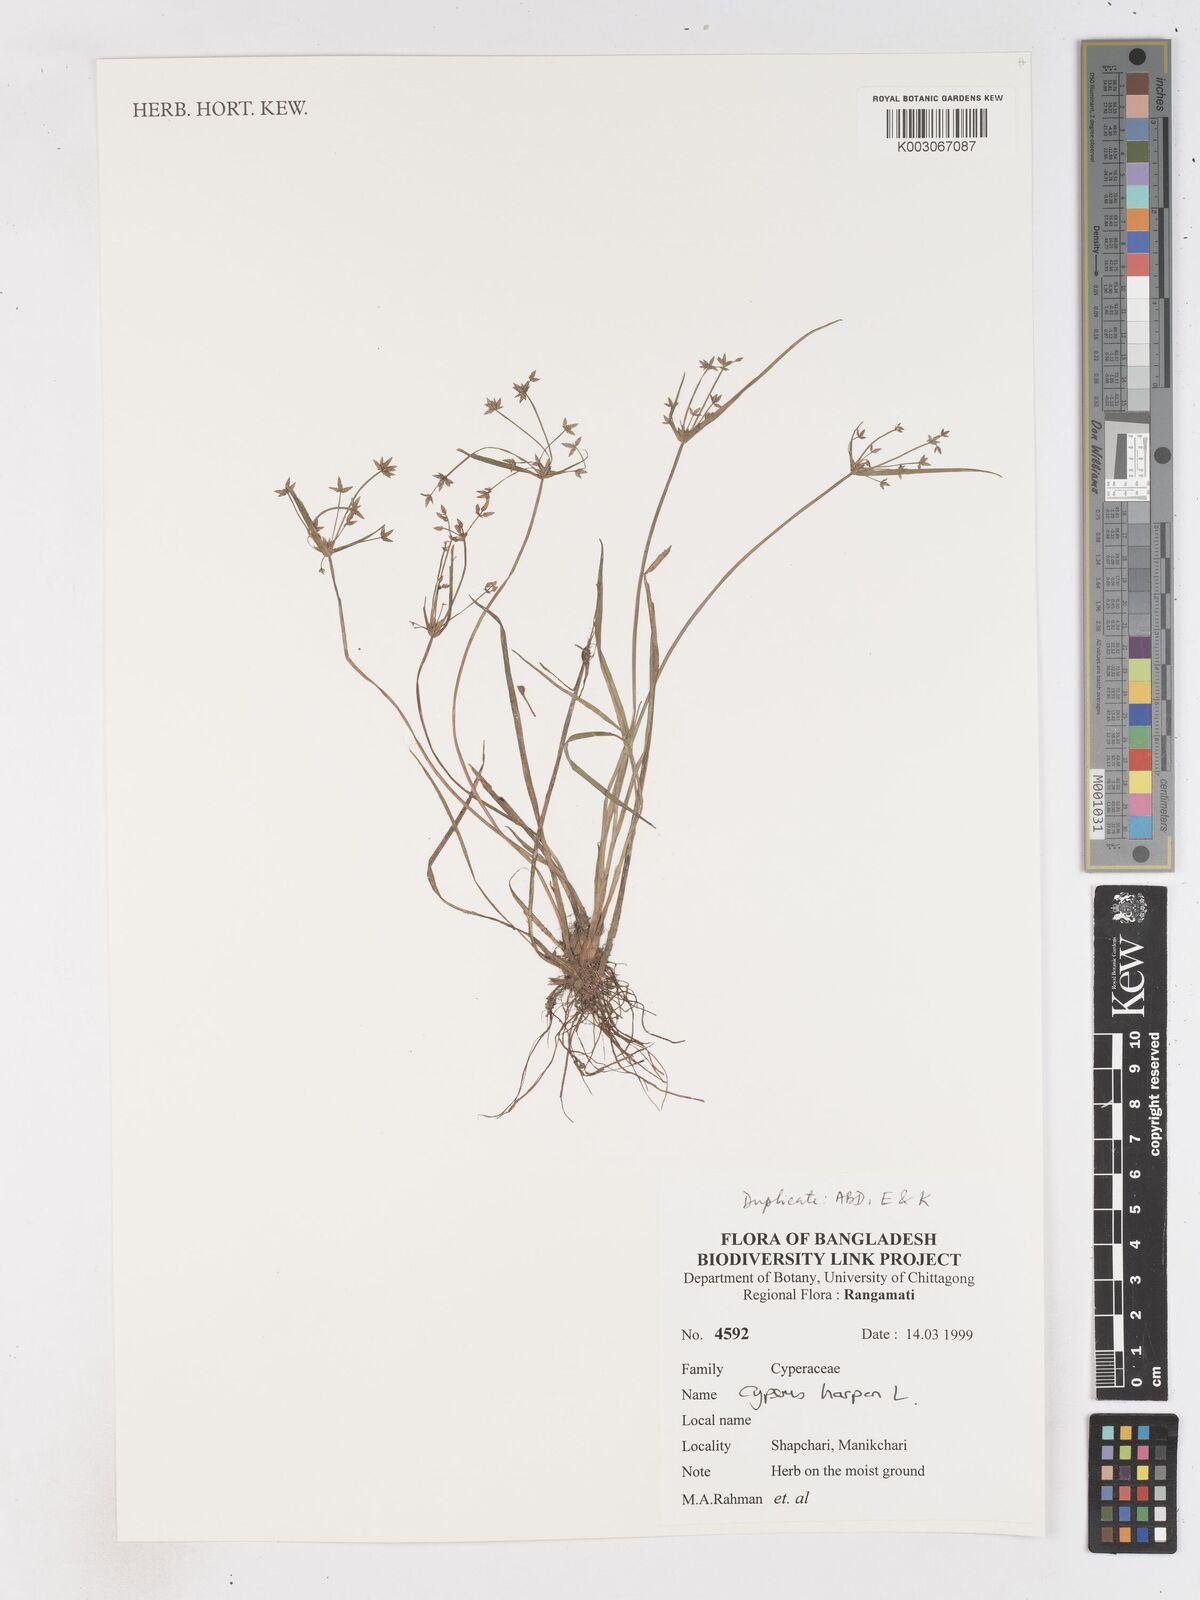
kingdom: Plantae
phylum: Tracheophyta
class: Liliopsida
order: Poales
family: Cyperaceae
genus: Cyperus
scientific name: Cyperus haspan
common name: Haspan flatsedge
